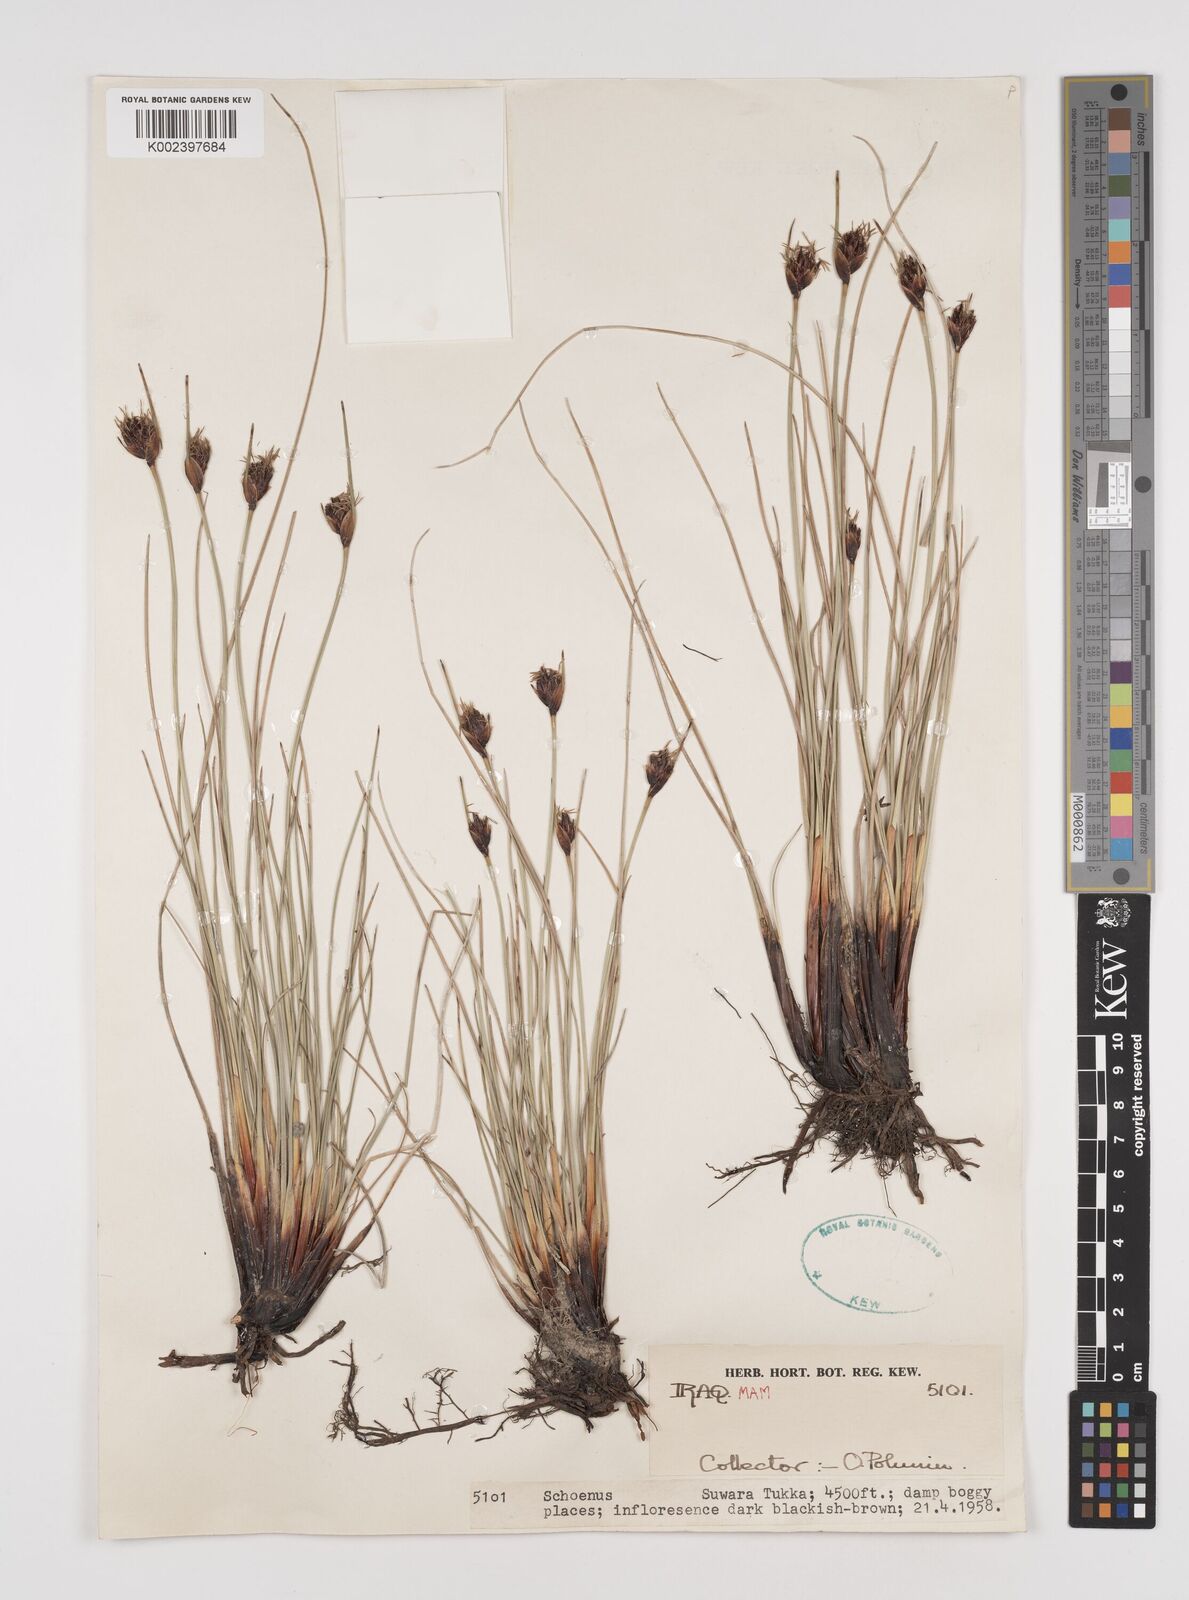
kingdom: Plantae
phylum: Tracheophyta
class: Liliopsida
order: Poales
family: Cyperaceae
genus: Schoenus
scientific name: Schoenus nigricans
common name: Black bog-rush
